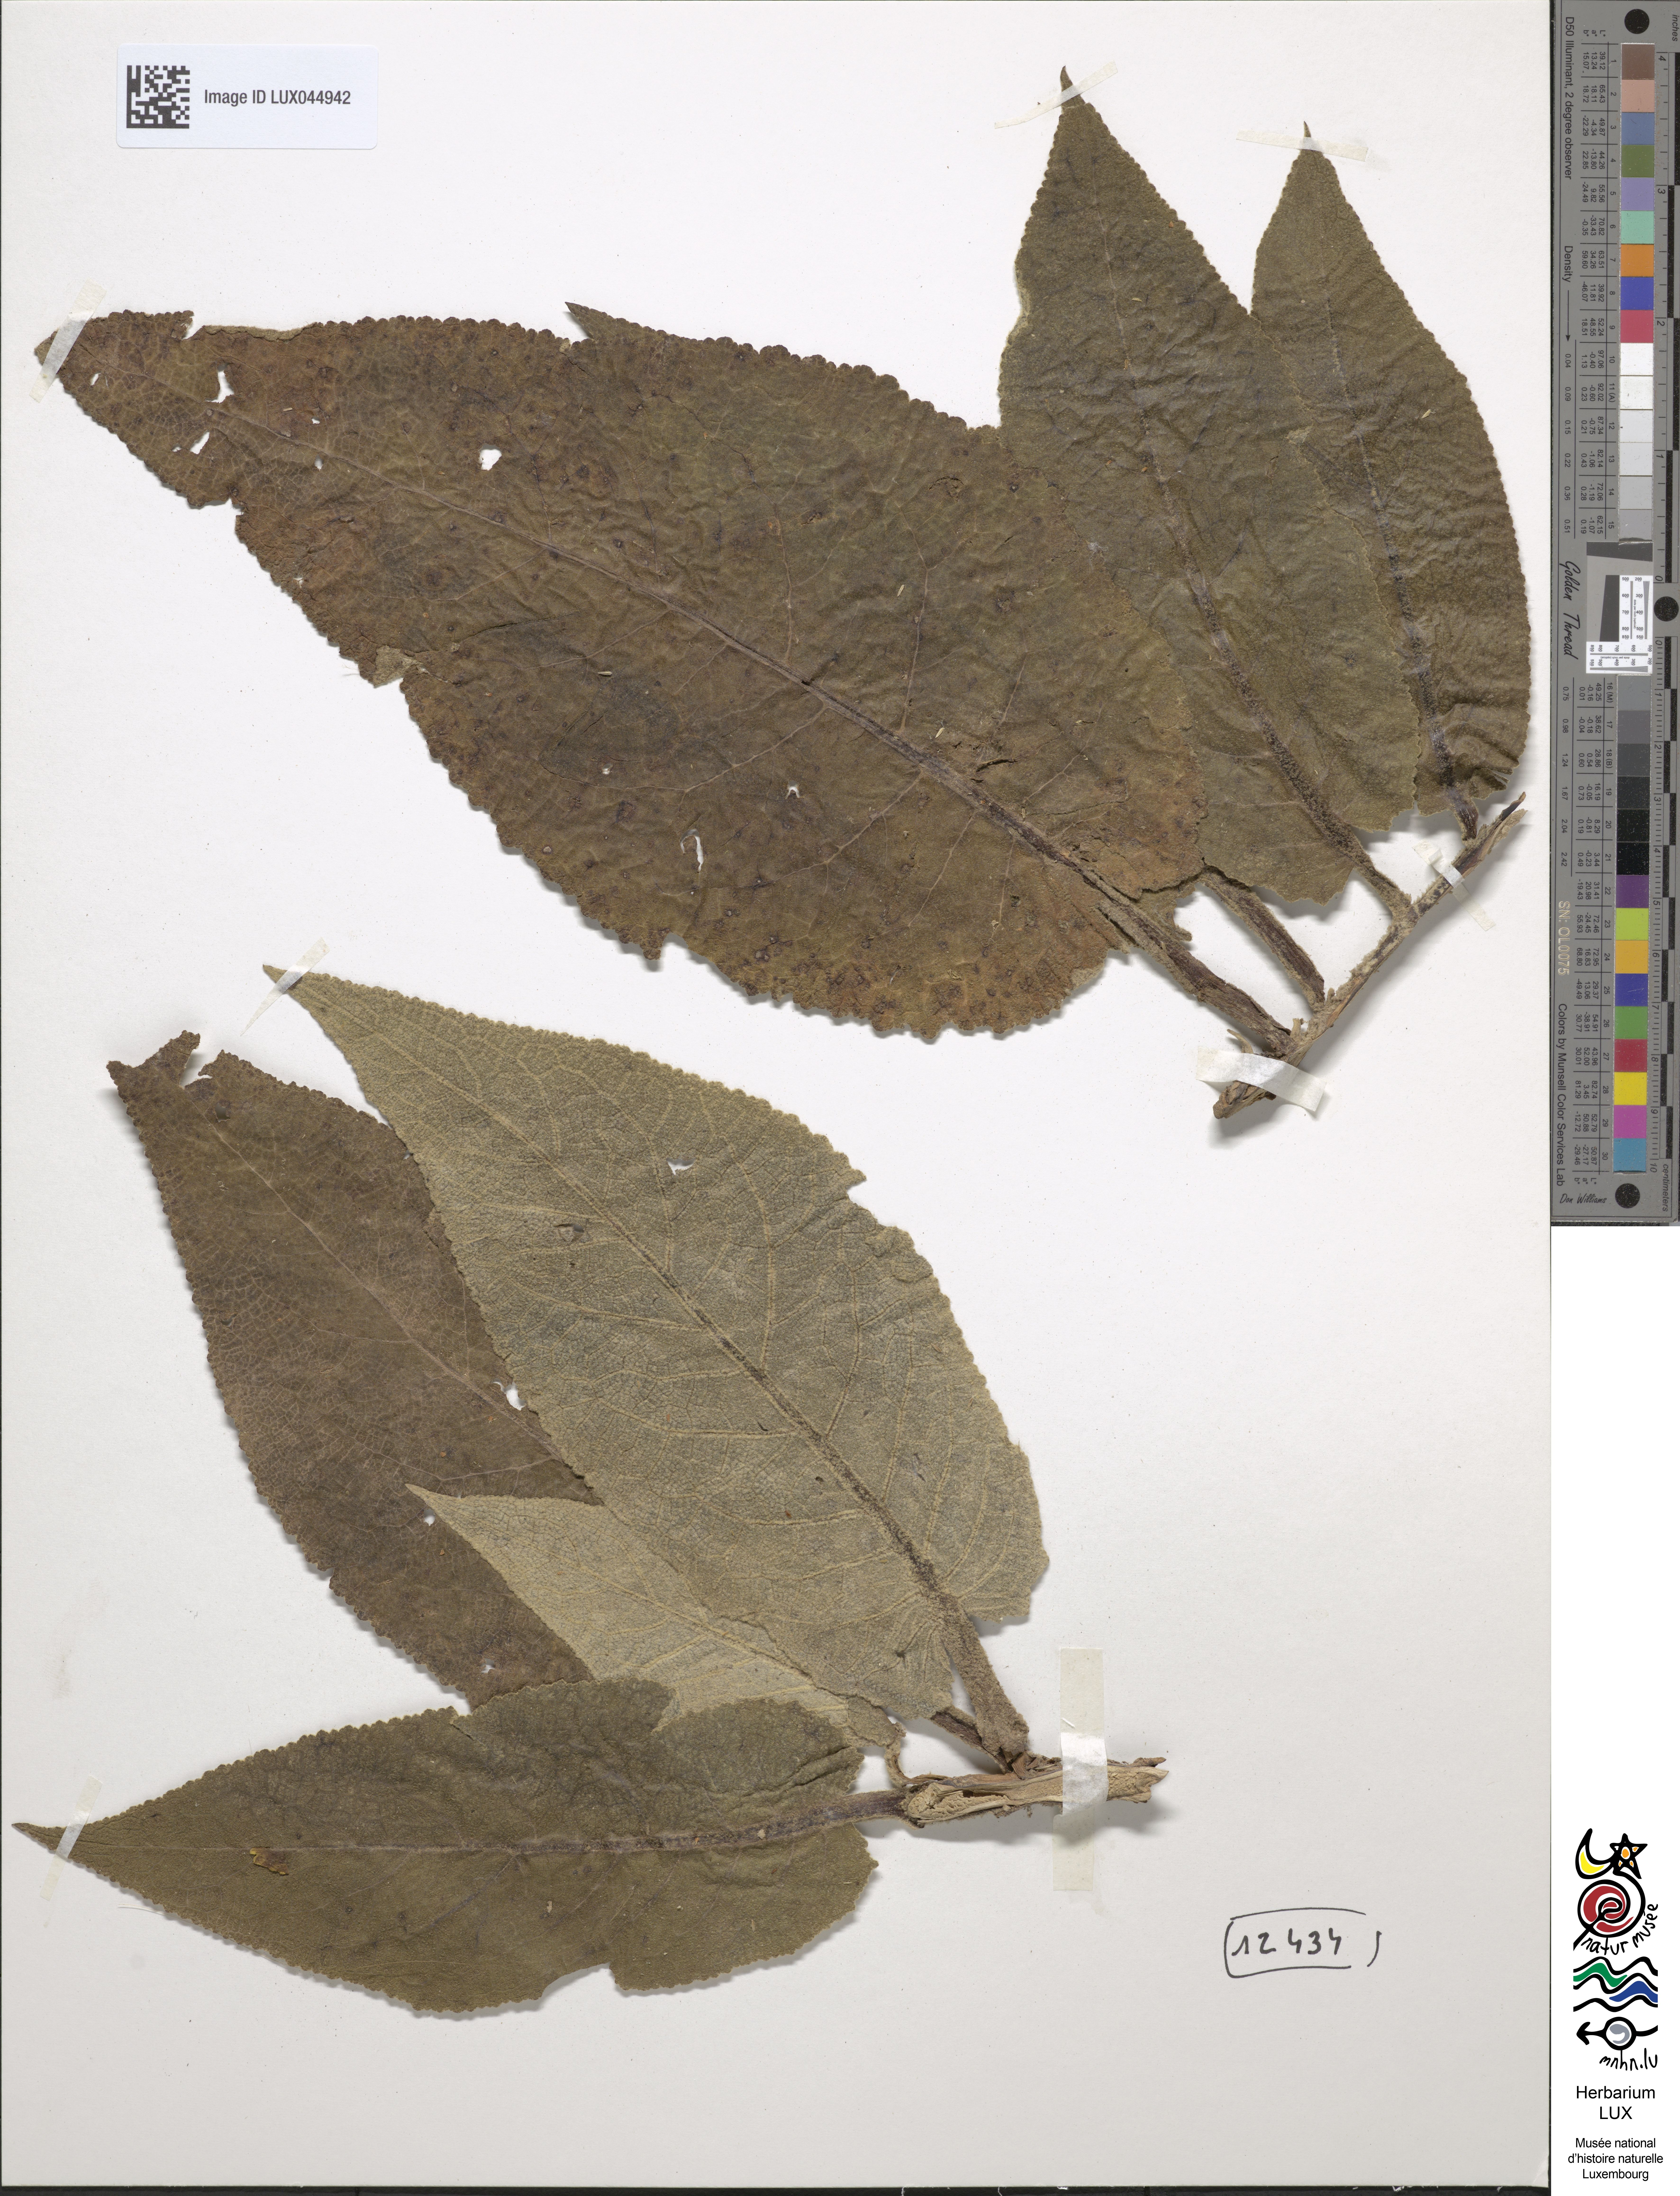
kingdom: Plantae
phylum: Tracheophyta
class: Magnoliopsida
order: Lamiales
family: Scrophulariaceae
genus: Verbascum
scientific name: Verbascum nigrum
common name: Dark mullein
